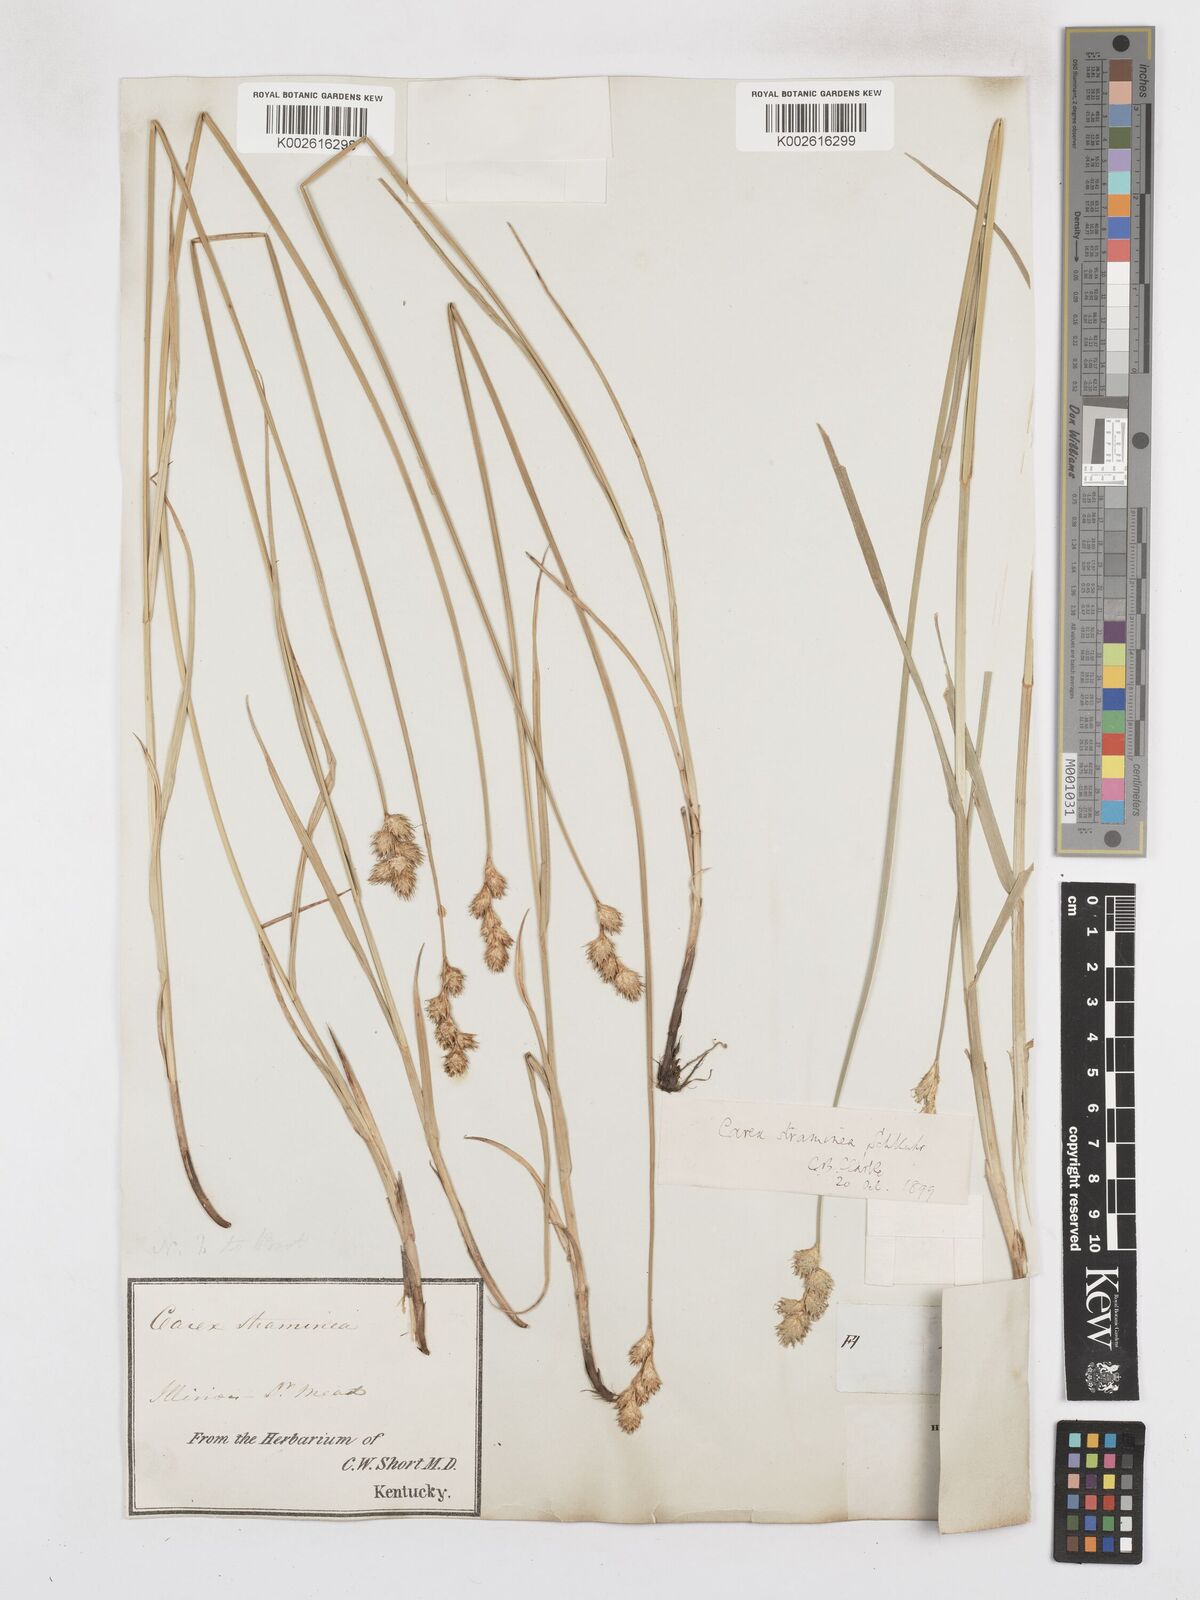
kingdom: Plantae
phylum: Tracheophyta
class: Liliopsida
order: Poales
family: Cyperaceae
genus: Carex
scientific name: Carex albolutescens
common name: Freenish white sedge
